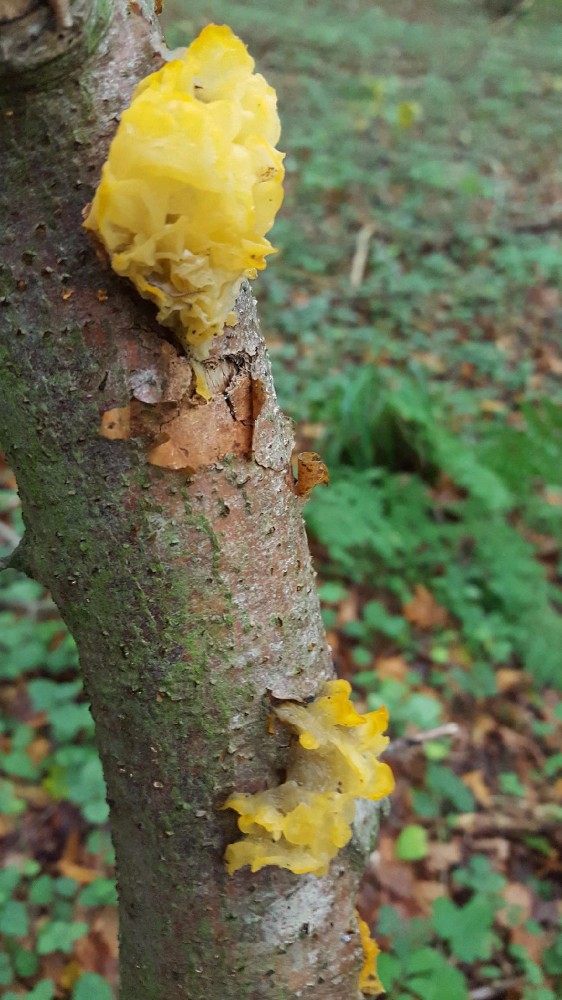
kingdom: Fungi
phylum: Basidiomycota
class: Tremellomycetes
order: Tremellales
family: Tremellaceae
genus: Tremella
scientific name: Tremella mesenterica
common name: gul bævresvamp
